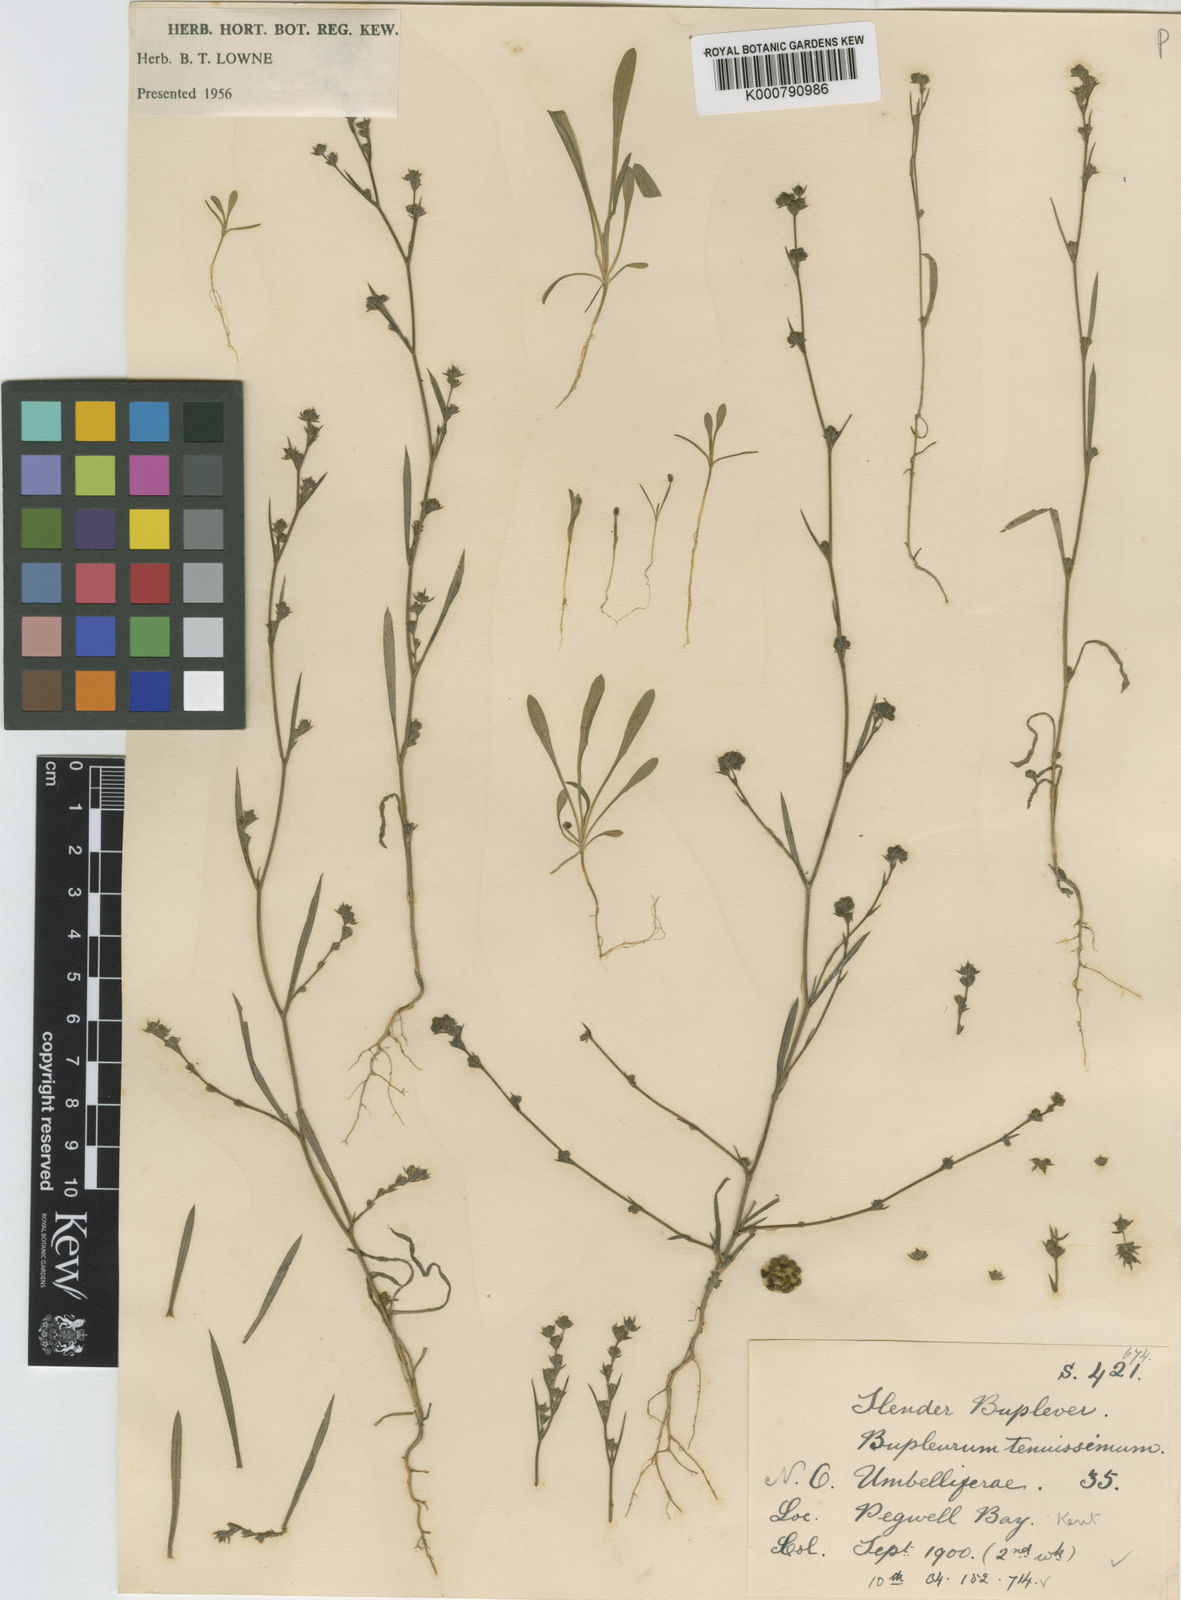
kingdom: Plantae
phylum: Tracheophyta
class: Magnoliopsida
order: Apiales
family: Apiaceae
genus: Bupleurum
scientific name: Bupleurum tenuissimum
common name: Slender hare's-ear
